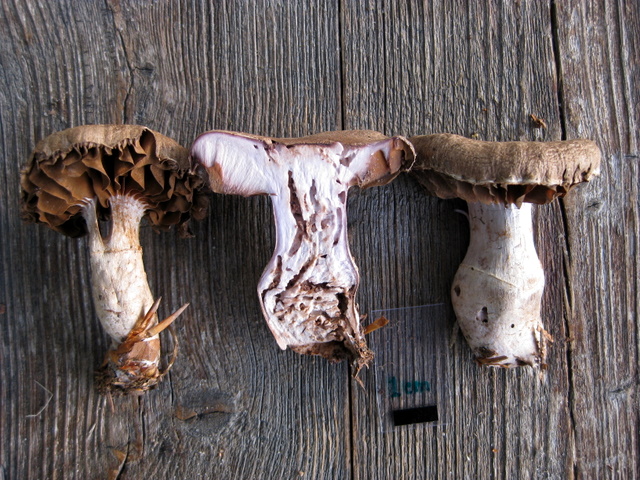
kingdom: Fungi
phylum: Basidiomycota
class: Agaricomycetes
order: Agaricales
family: Cortinariaceae
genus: Cortinarius
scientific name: Cortinarius torvus
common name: champignonagtig slørhat
